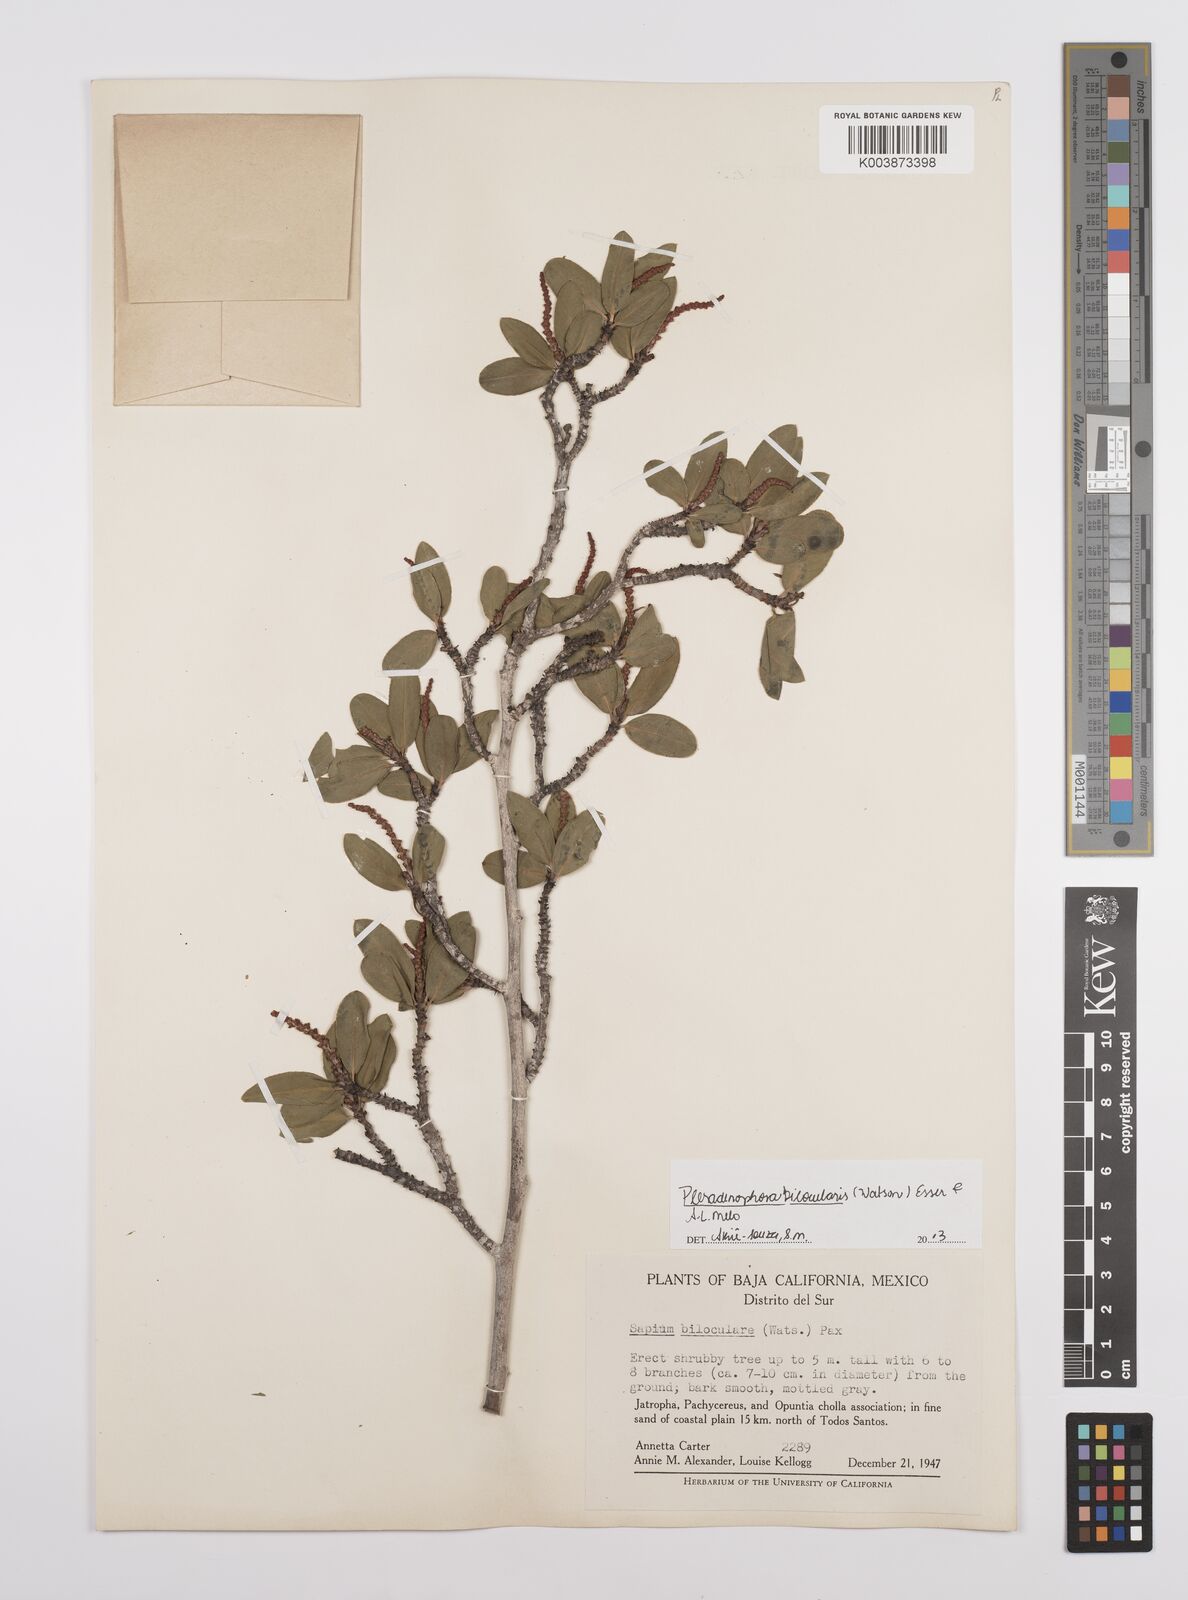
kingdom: Plantae
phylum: Tracheophyta
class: Magnoliopsida
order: Malpighiales
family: Euphorbiaceae
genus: Pleradenophora
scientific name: Pleradenophora bilocularis
